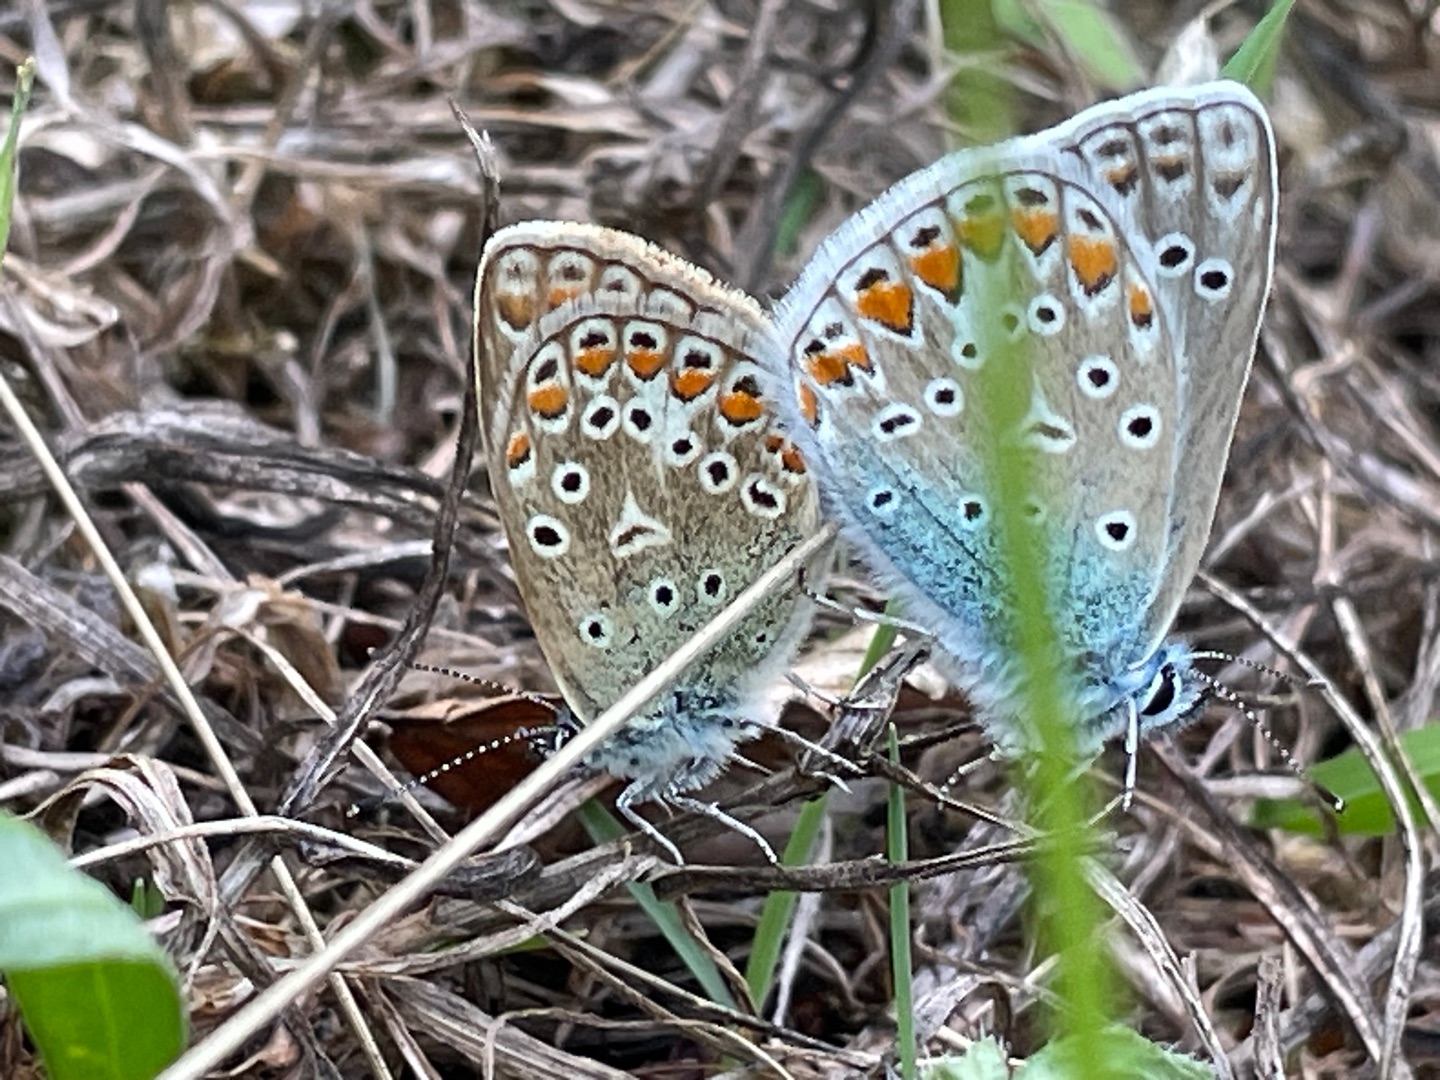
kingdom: Animalia
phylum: Arthropoda
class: Insecta
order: Lepidoptera
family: Lycaenidae
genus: Polyommatus
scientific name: Polyommatus icarus
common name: Almindelig blåfugl
